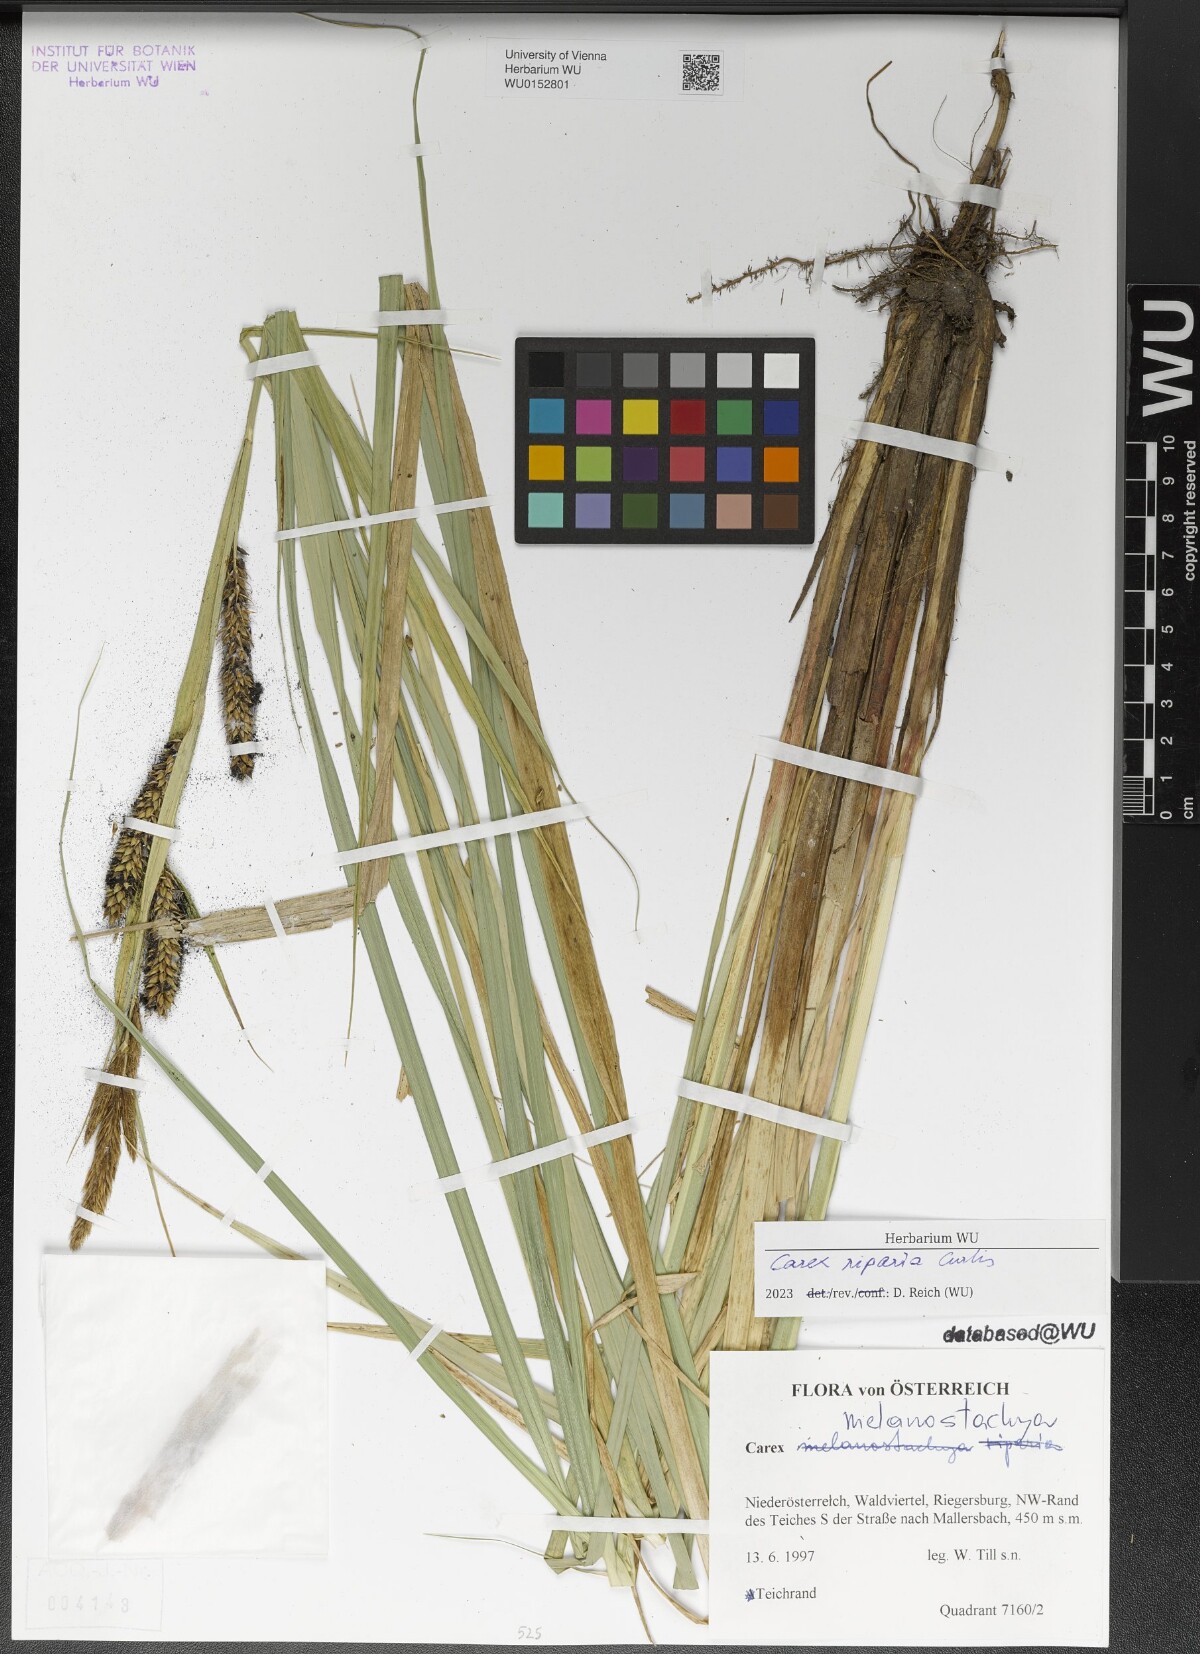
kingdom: Plantae
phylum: Tracheophyta
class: Liliopsida
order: Poales
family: Cyperaceae
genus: Carex
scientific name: Carex riparia
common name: Greater pond-sedge
